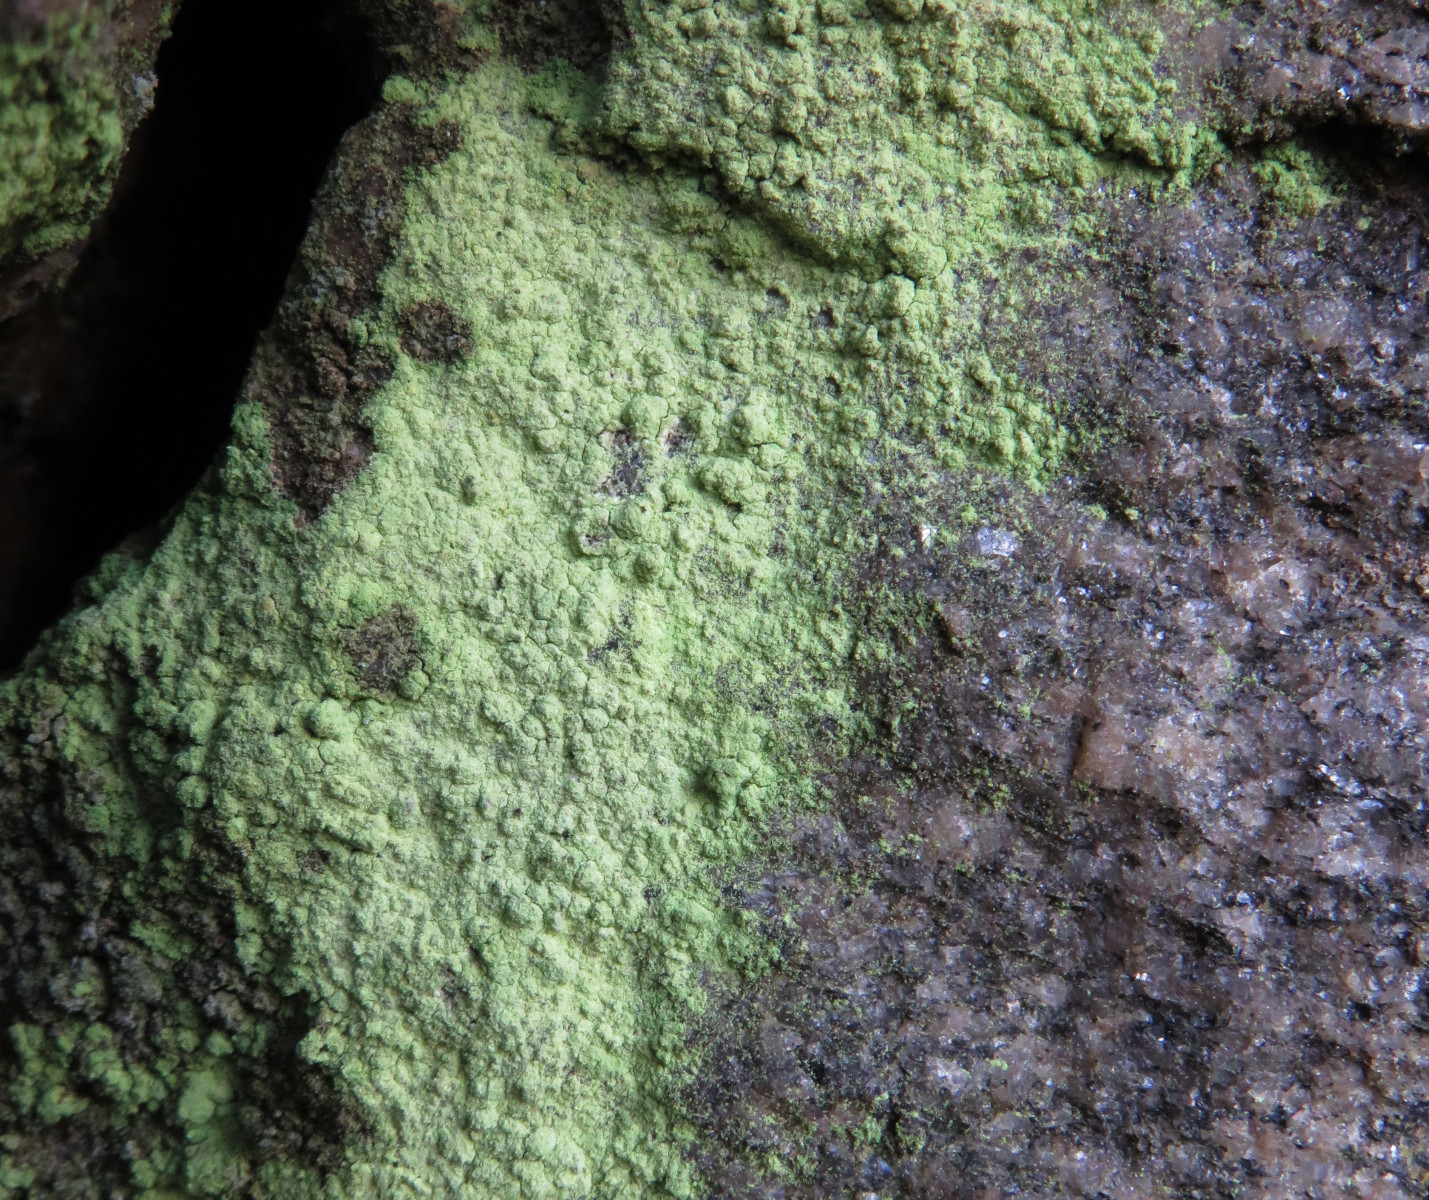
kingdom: Fungi
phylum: Ascomycota
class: Lecanoromycetes
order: Lecanorales
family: Psilolechiaceae
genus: Psilolechia
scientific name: Psilolechia lucida
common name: gul skyggelav
